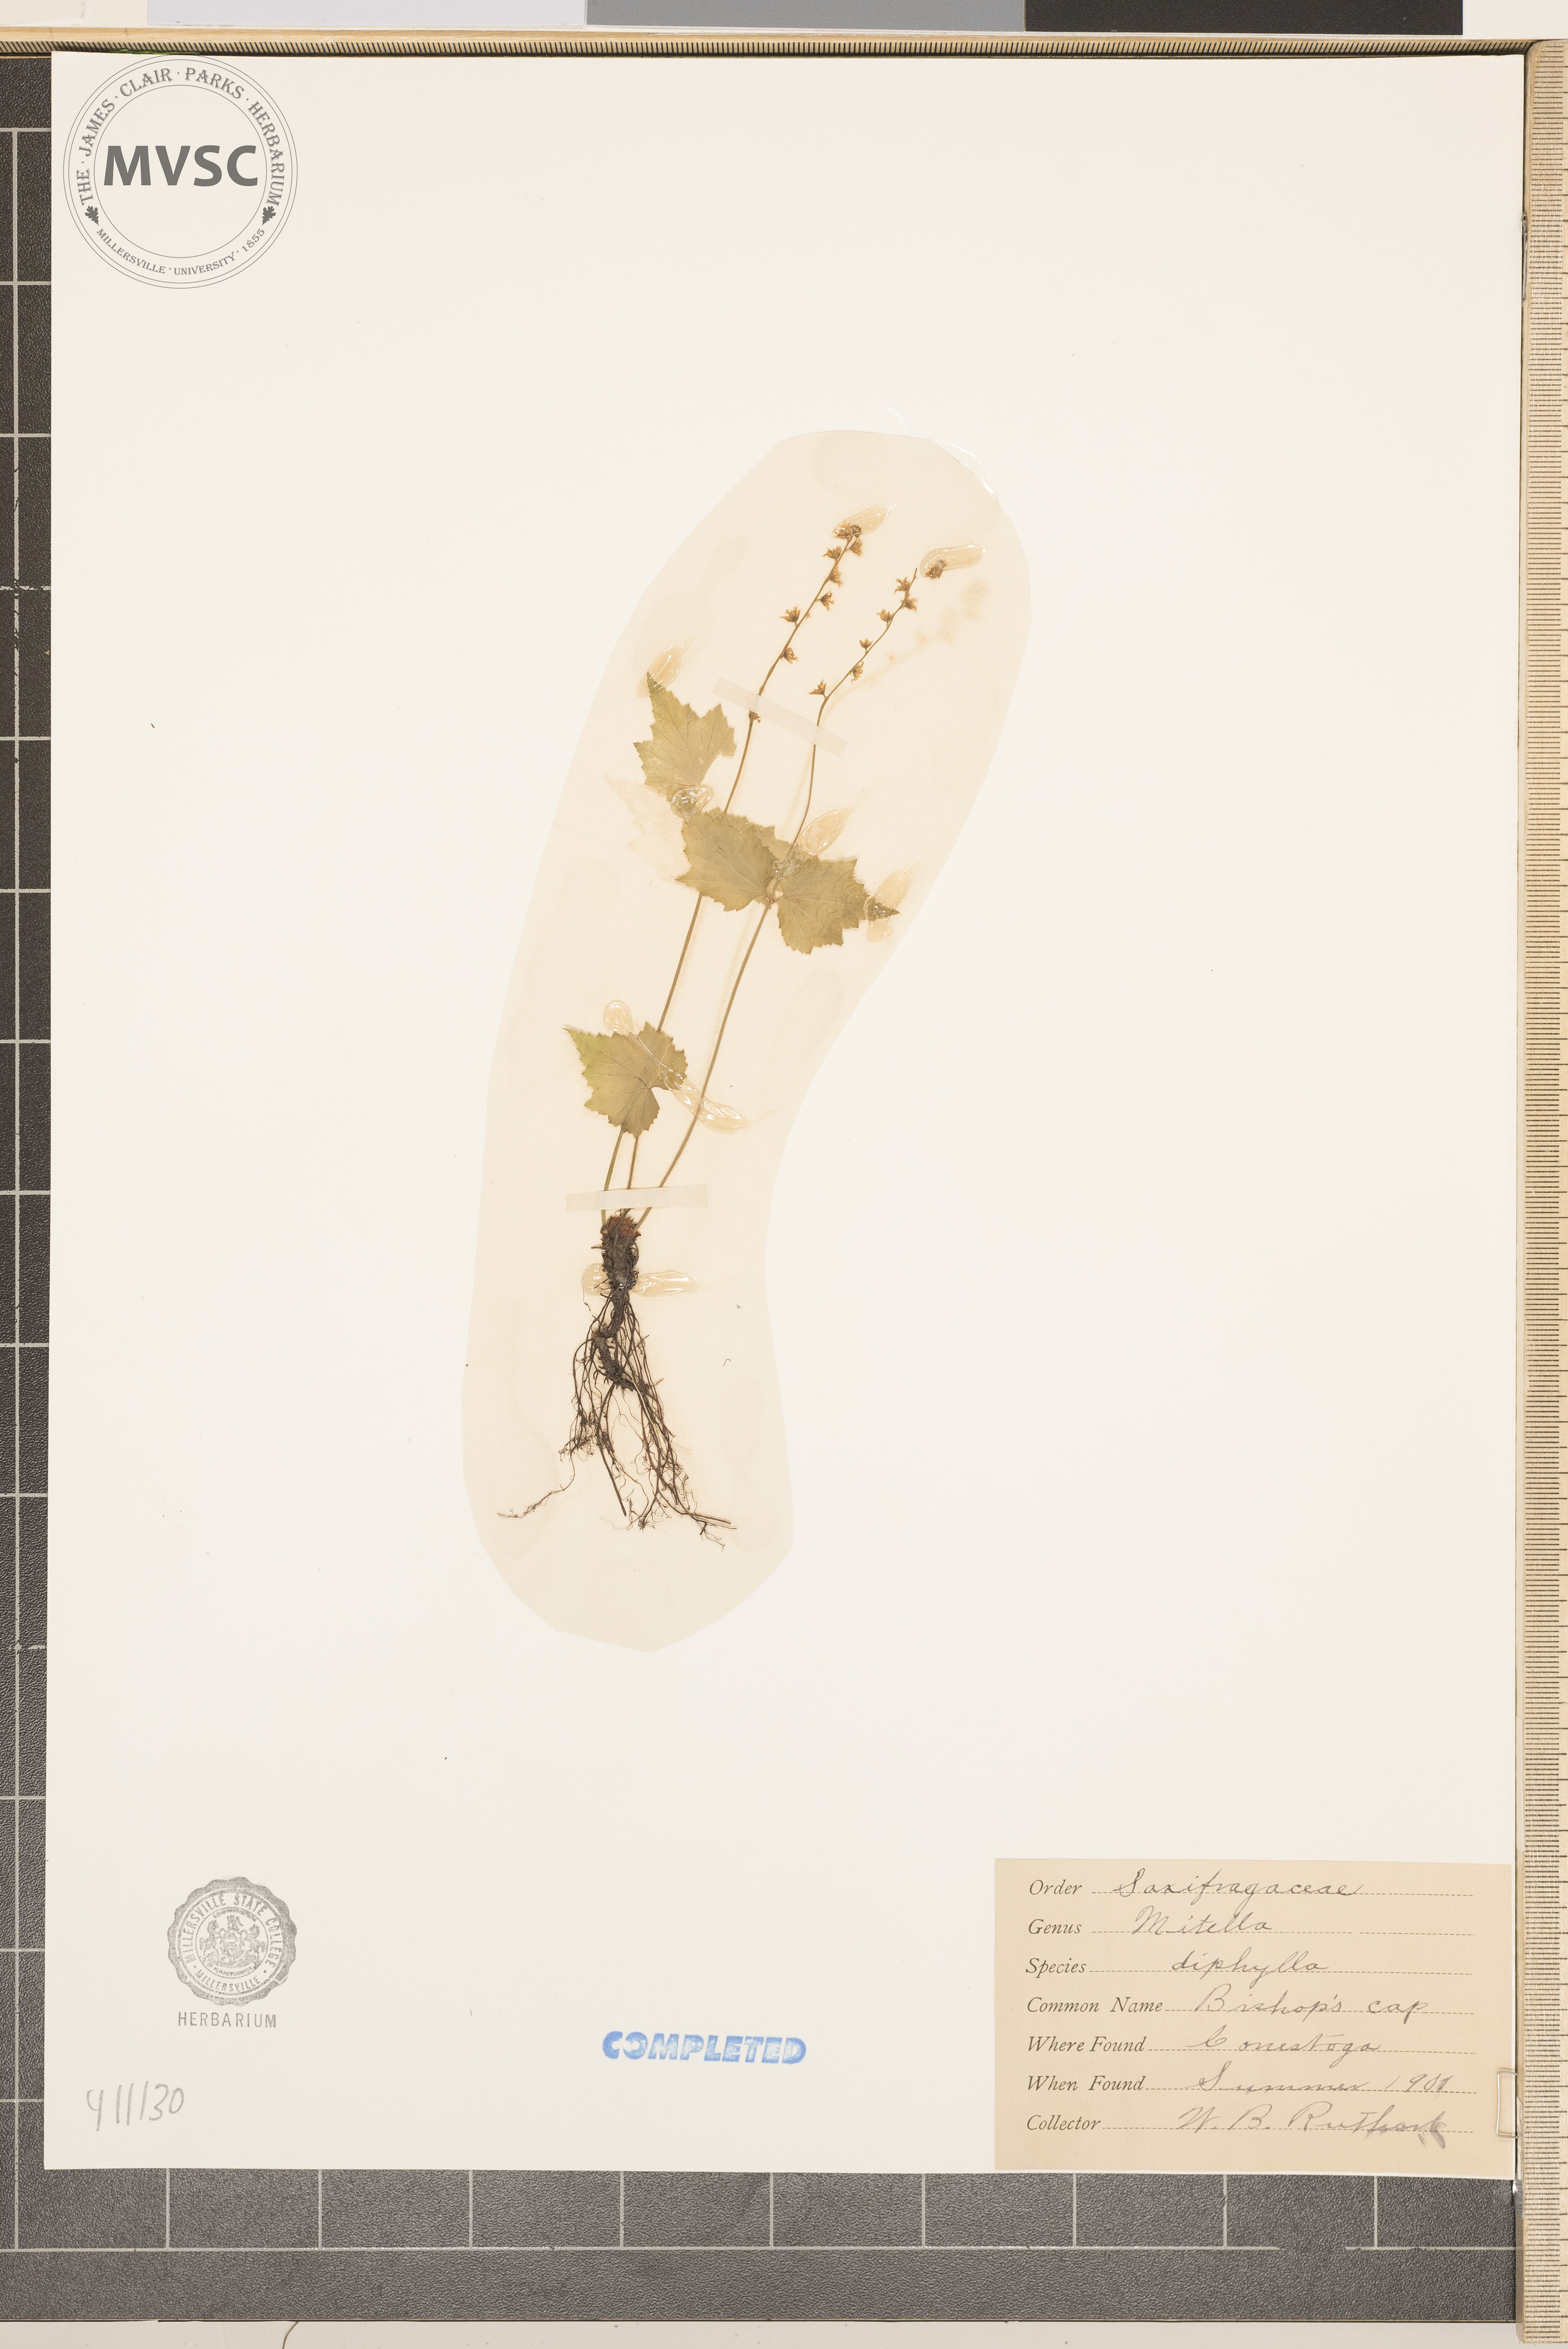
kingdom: Plantae
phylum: Tracheophyta
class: Magnoliopsida
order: Saxifragales
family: Saxifragaceae
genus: Mitella
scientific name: Mitella diphylla
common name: Coolwort
